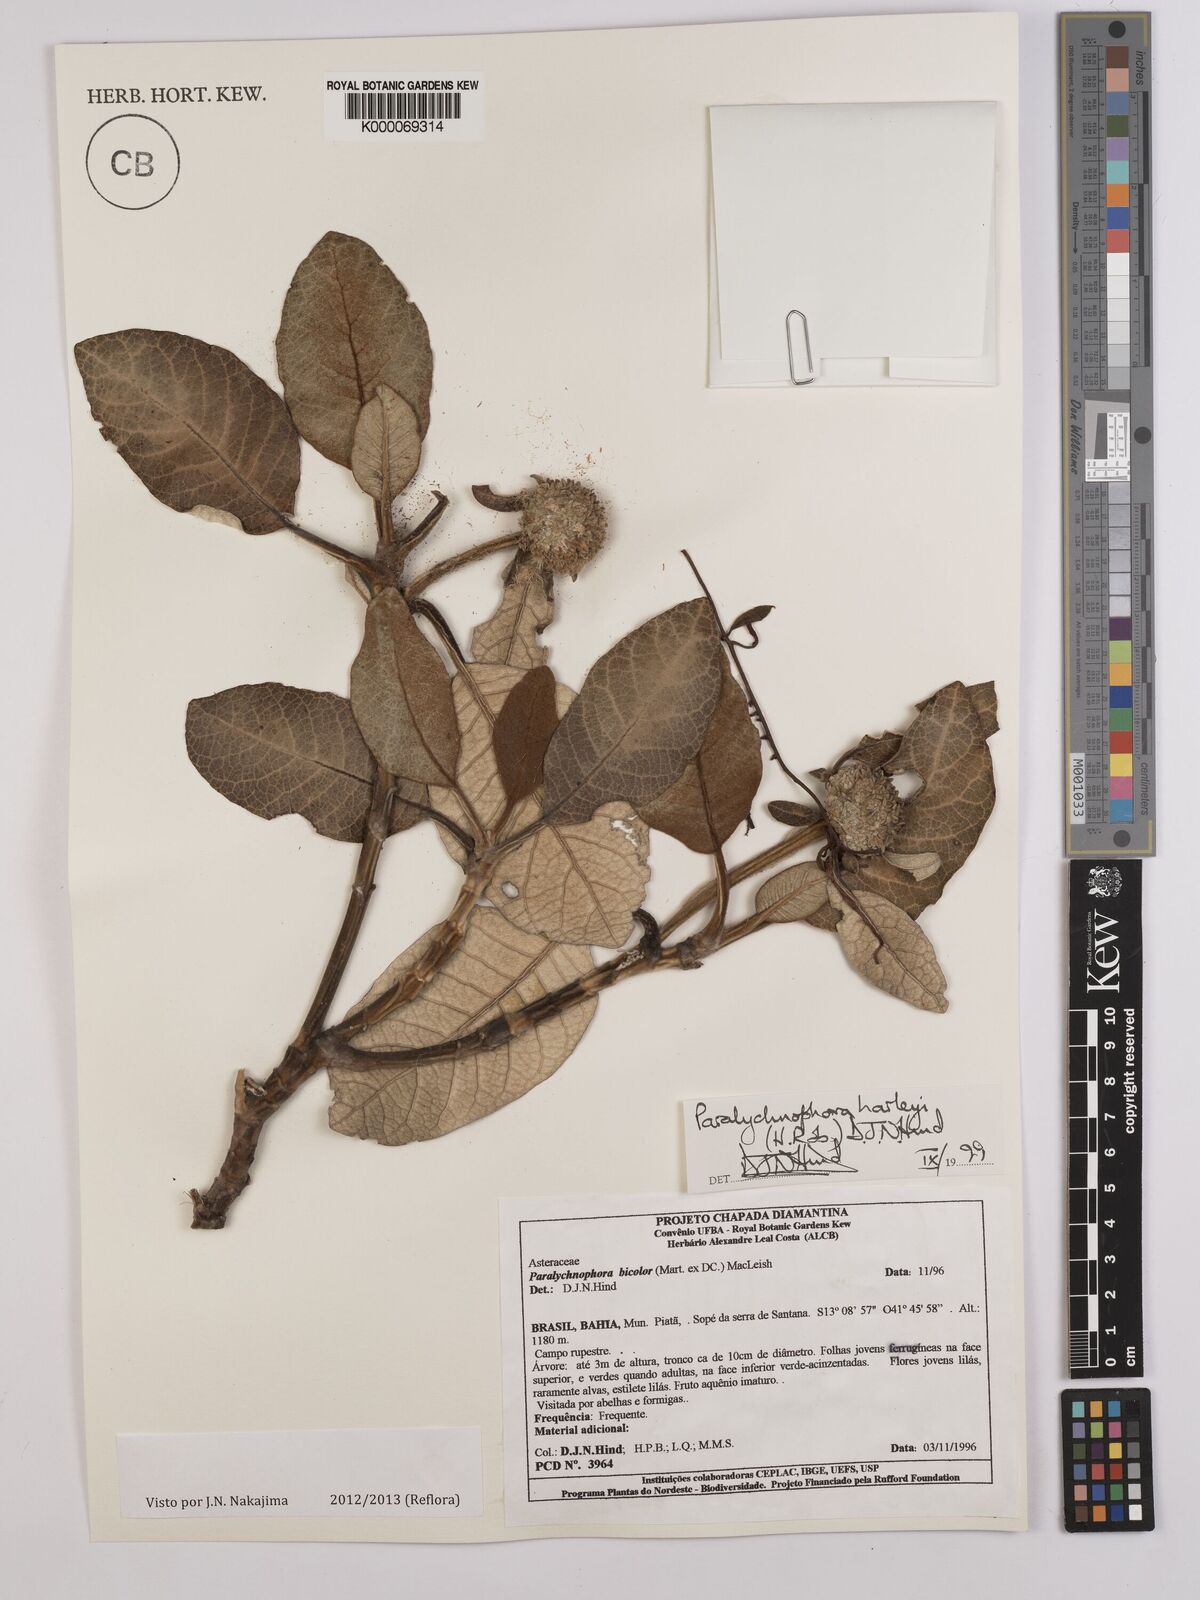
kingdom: Plantae
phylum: Tracheophyta
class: Magnoliopsida
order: Asterales
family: Asteraceae
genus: Paralychnophora
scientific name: Paralychnophora harleyi
